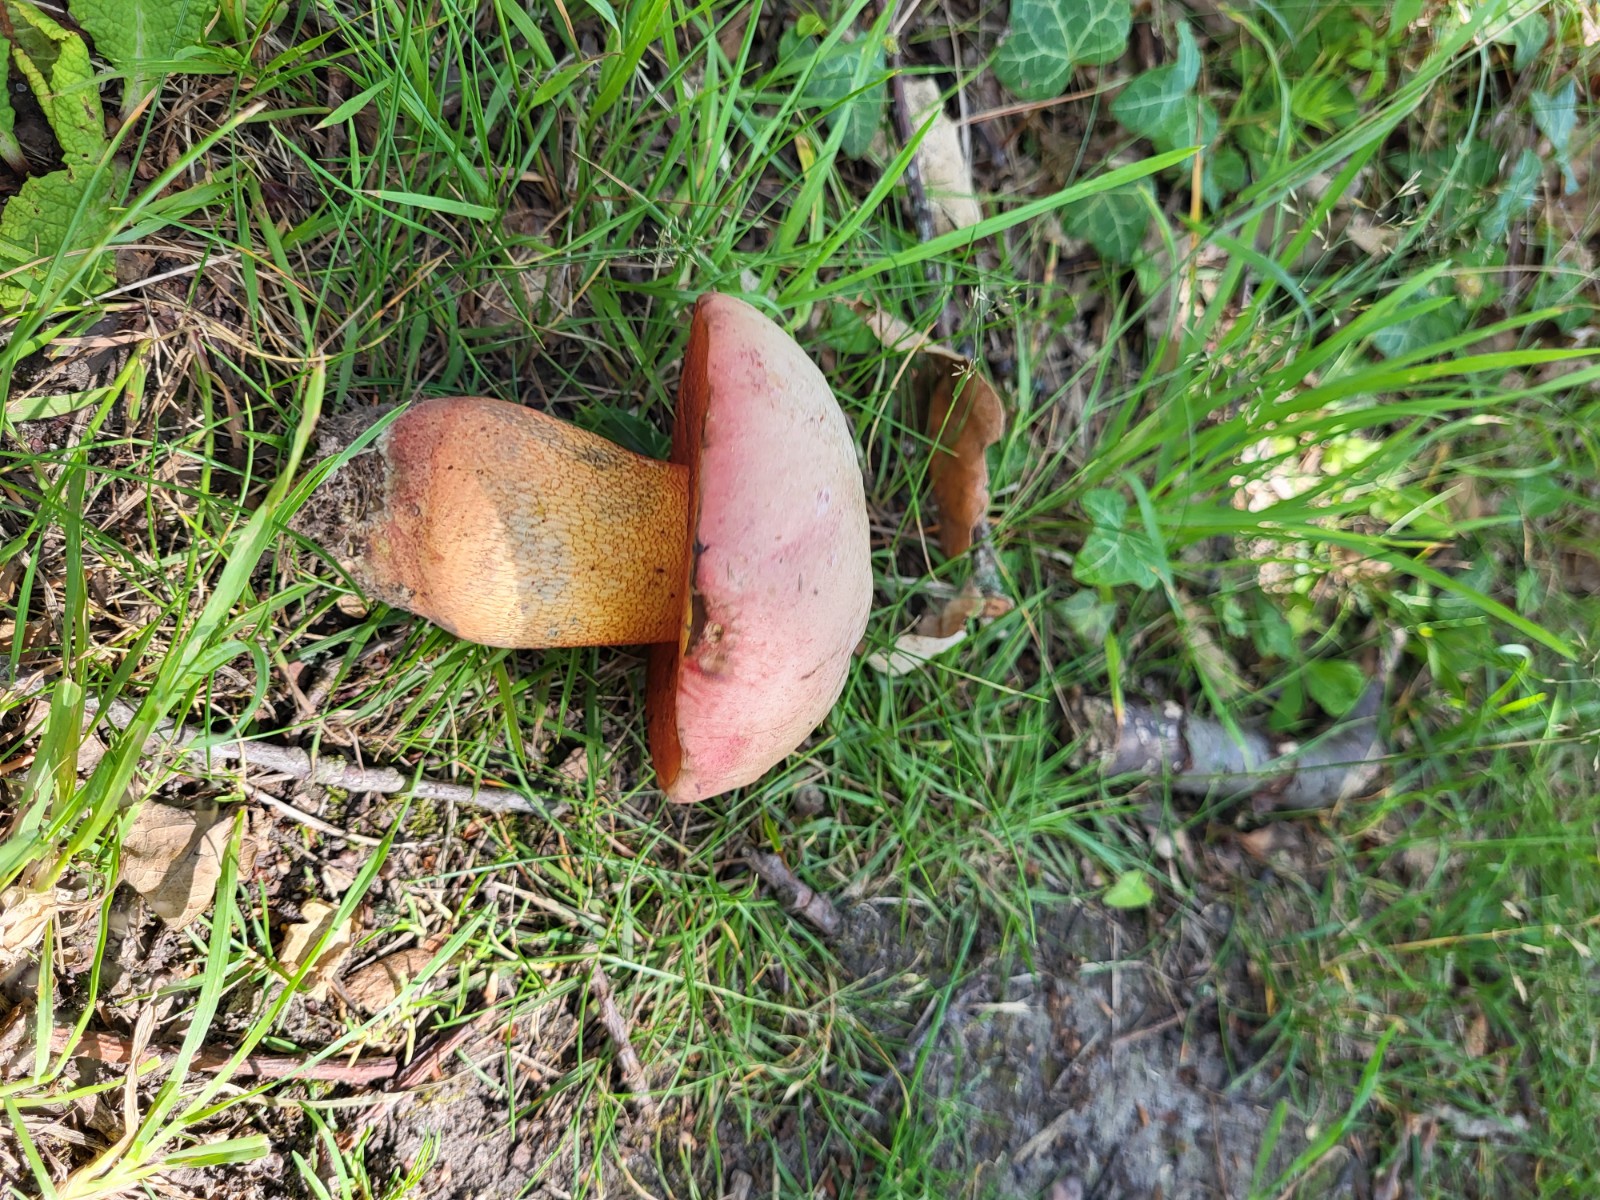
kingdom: Fungi
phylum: Basidiomycota
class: Agaricomycetes
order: Boletales
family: Boletaceae
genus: Rubroboletus
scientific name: Rubroboletus legaliae
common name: djævle-rørhat
